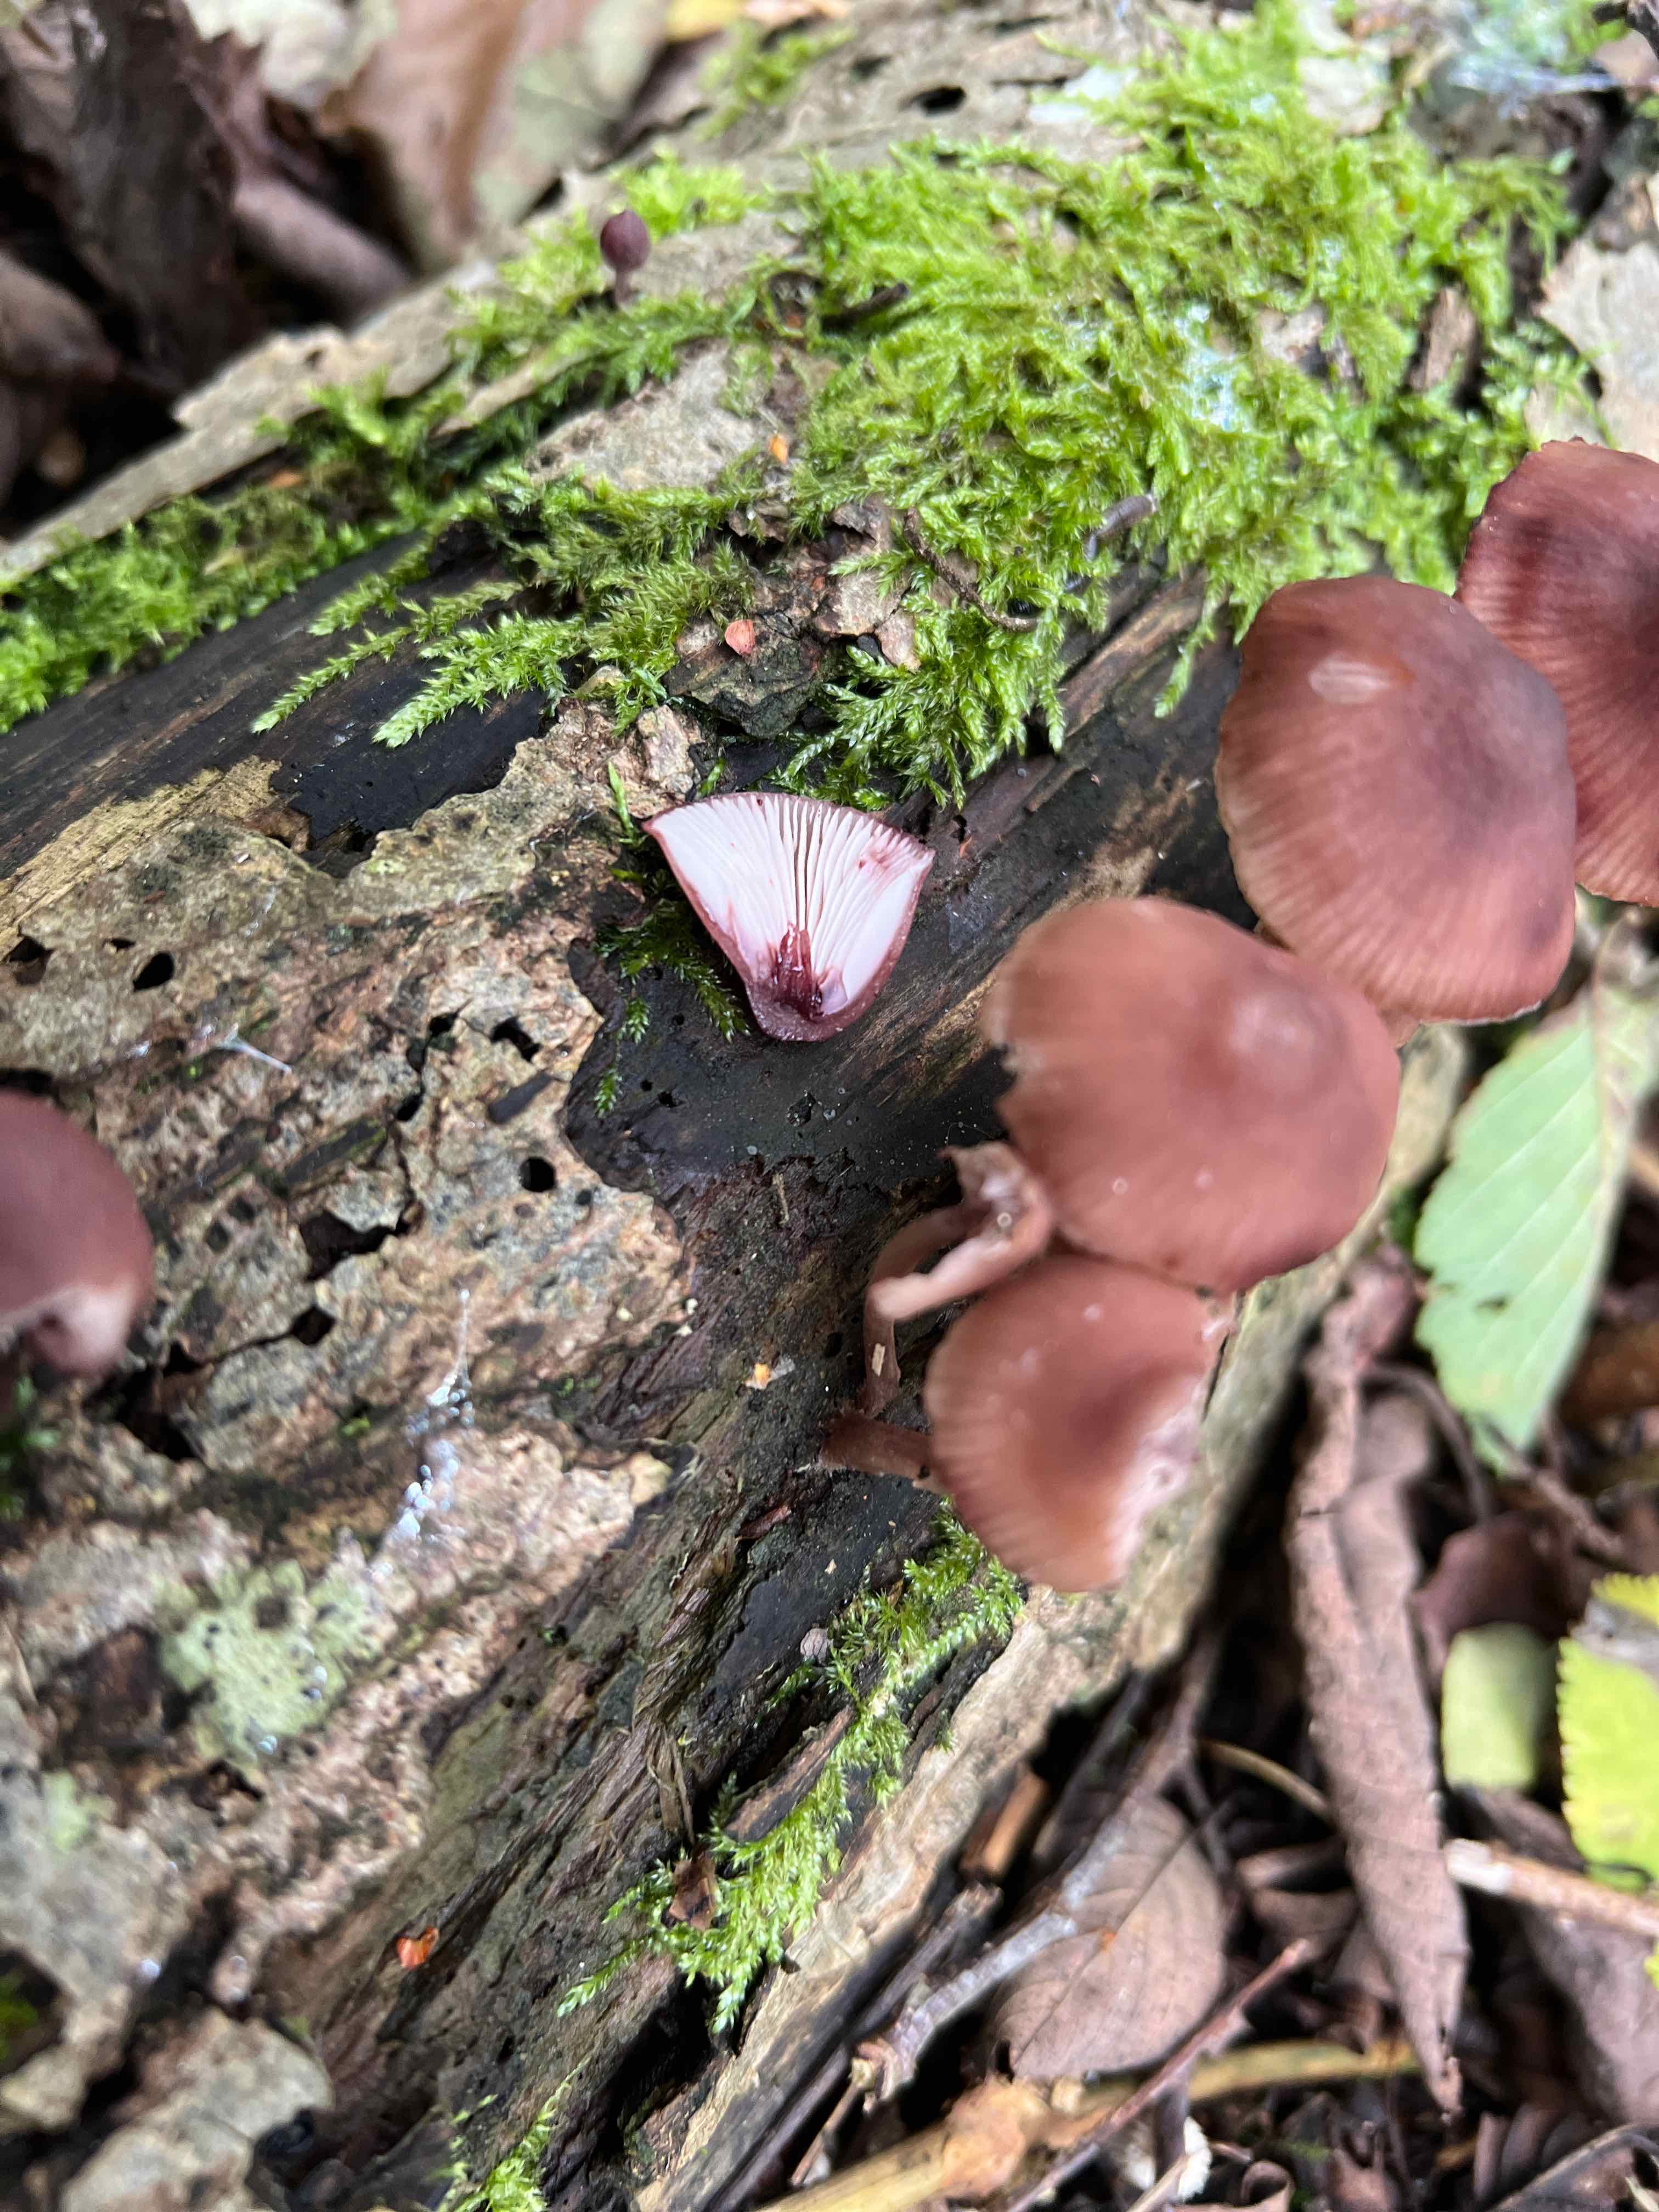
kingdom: Fungi
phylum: Basidiomycota
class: Agaricomycetes
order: Agaricales
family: Mycenaceae
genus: Mycena
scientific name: Mycena haematopus
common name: blødende huesvamp
